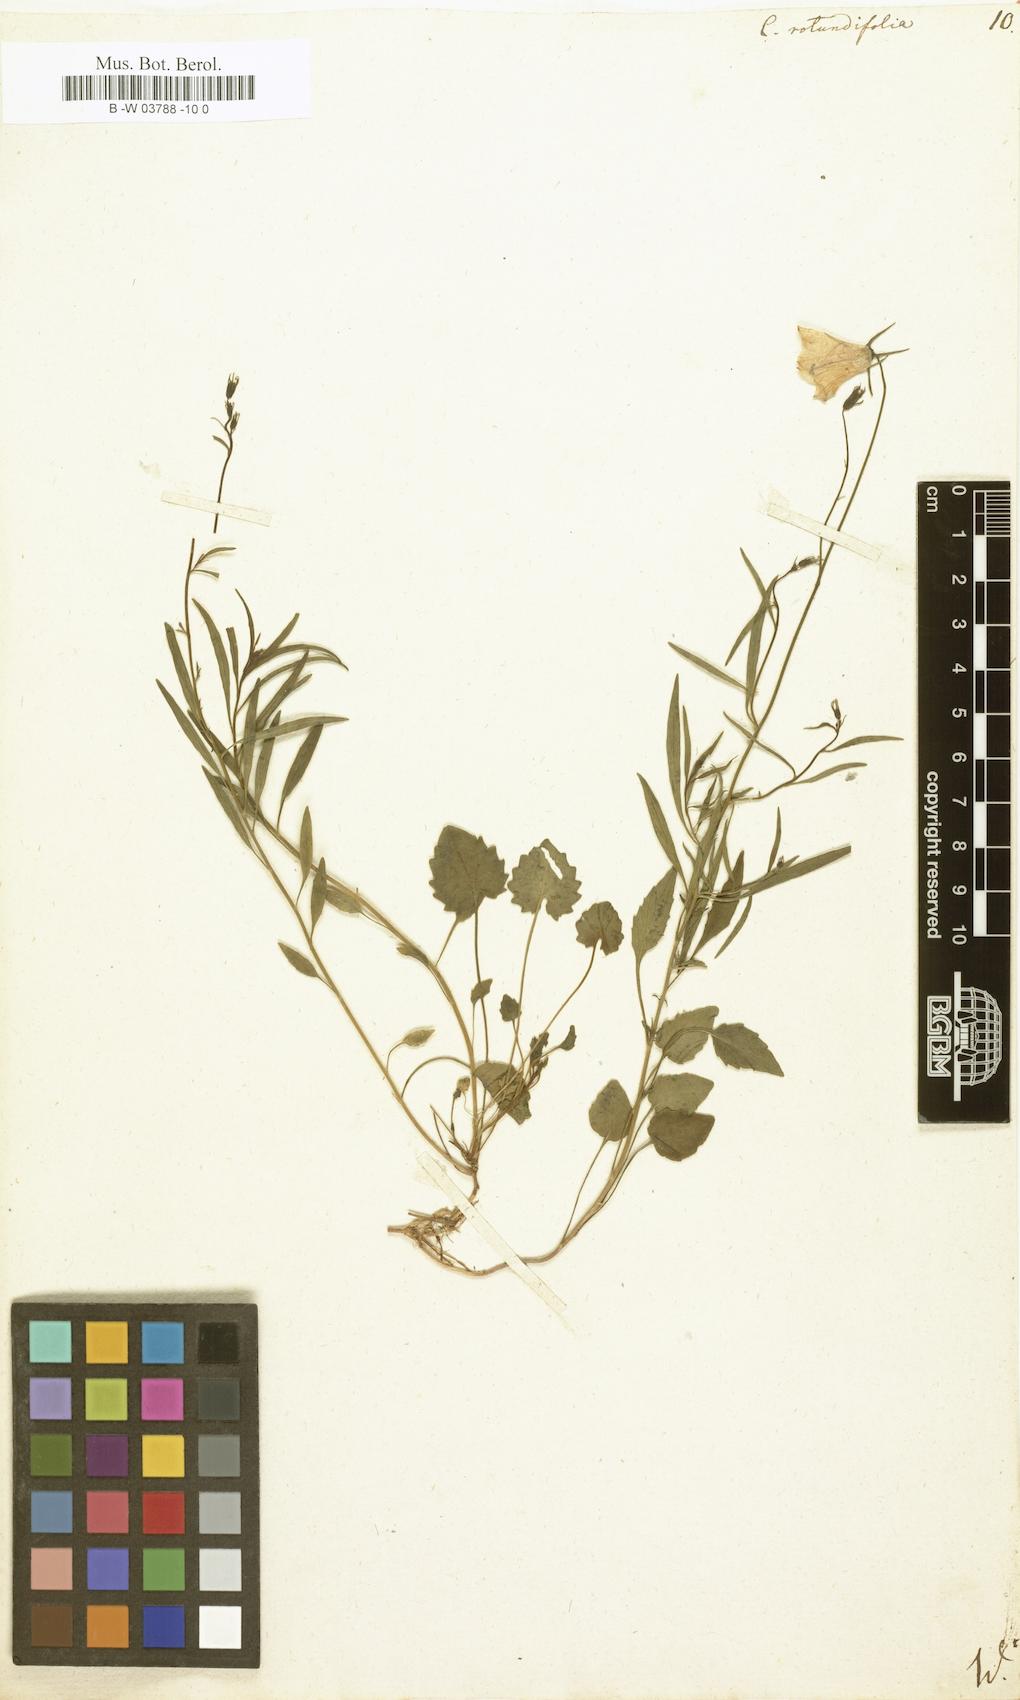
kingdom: Plantae
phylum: Tracheophyta
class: Magnoliopsida
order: Asterales
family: Campanulaceae
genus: Campanula
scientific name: Campanula rotundifolia
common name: Harebell
